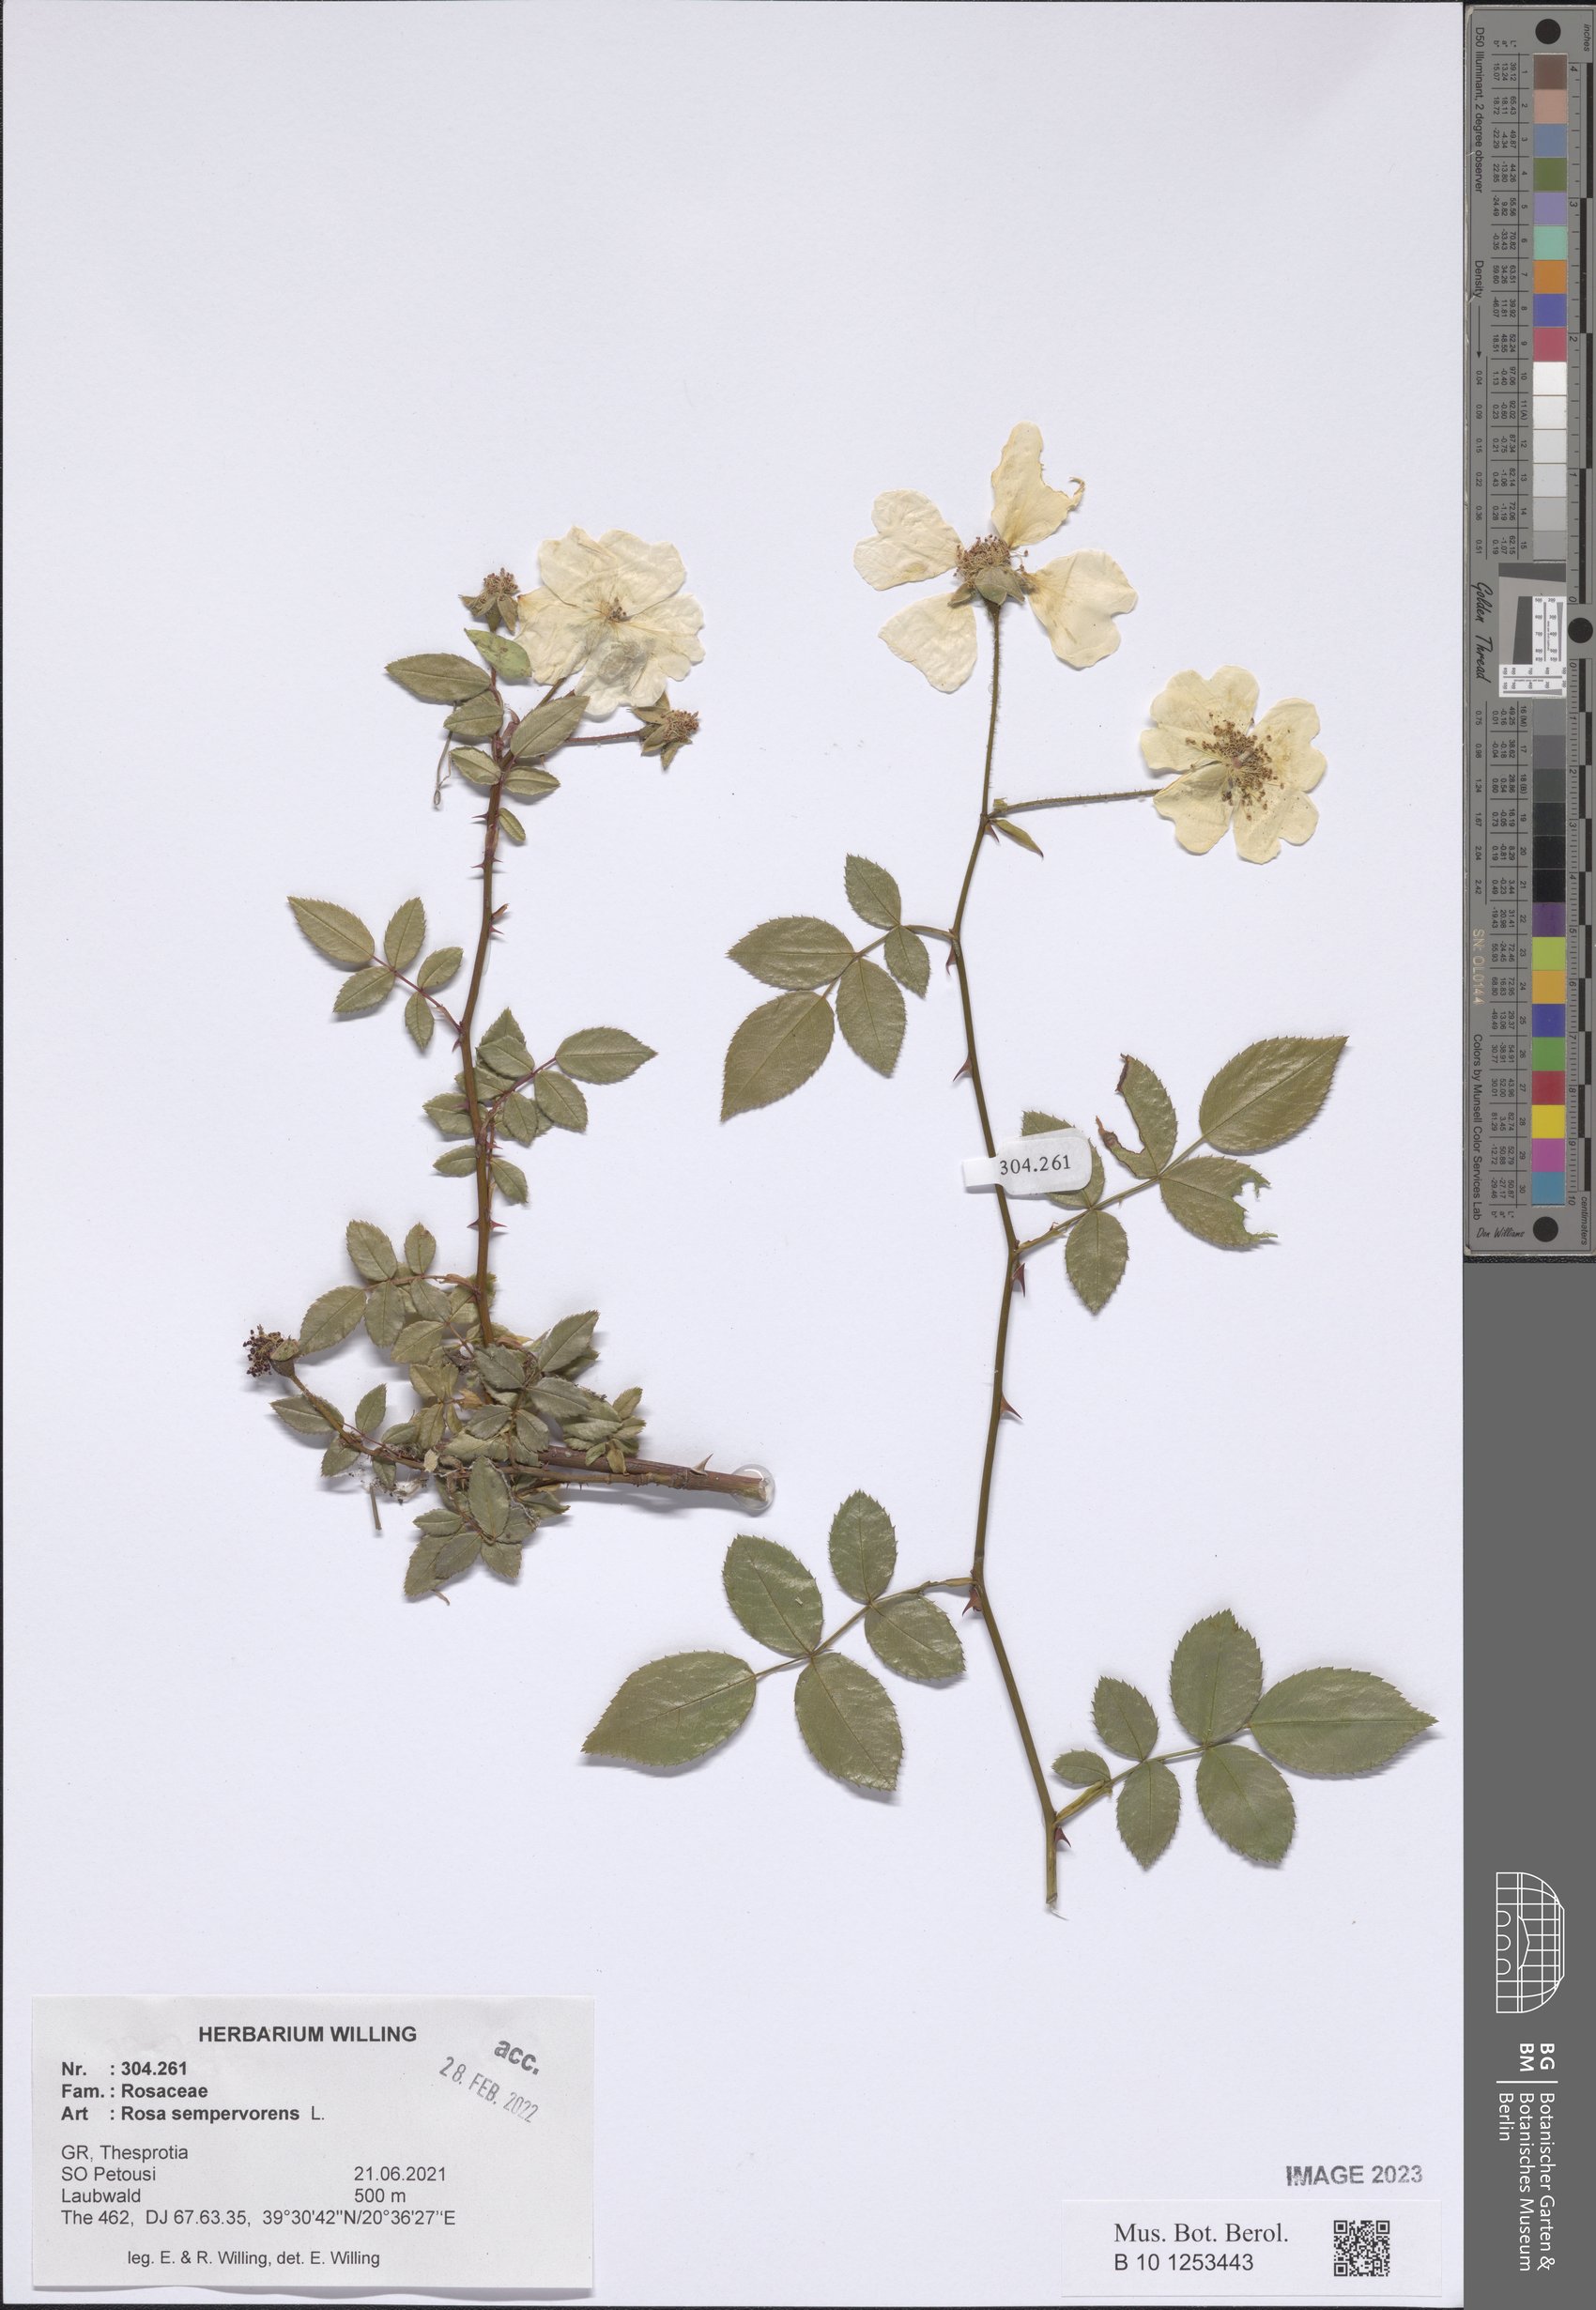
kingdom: Plantae
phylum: Tracheophyta
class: Magnoliopsida
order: Rosales
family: Rosaceae
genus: Rosa
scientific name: Rosa sempervirens
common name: Evergreen rose
